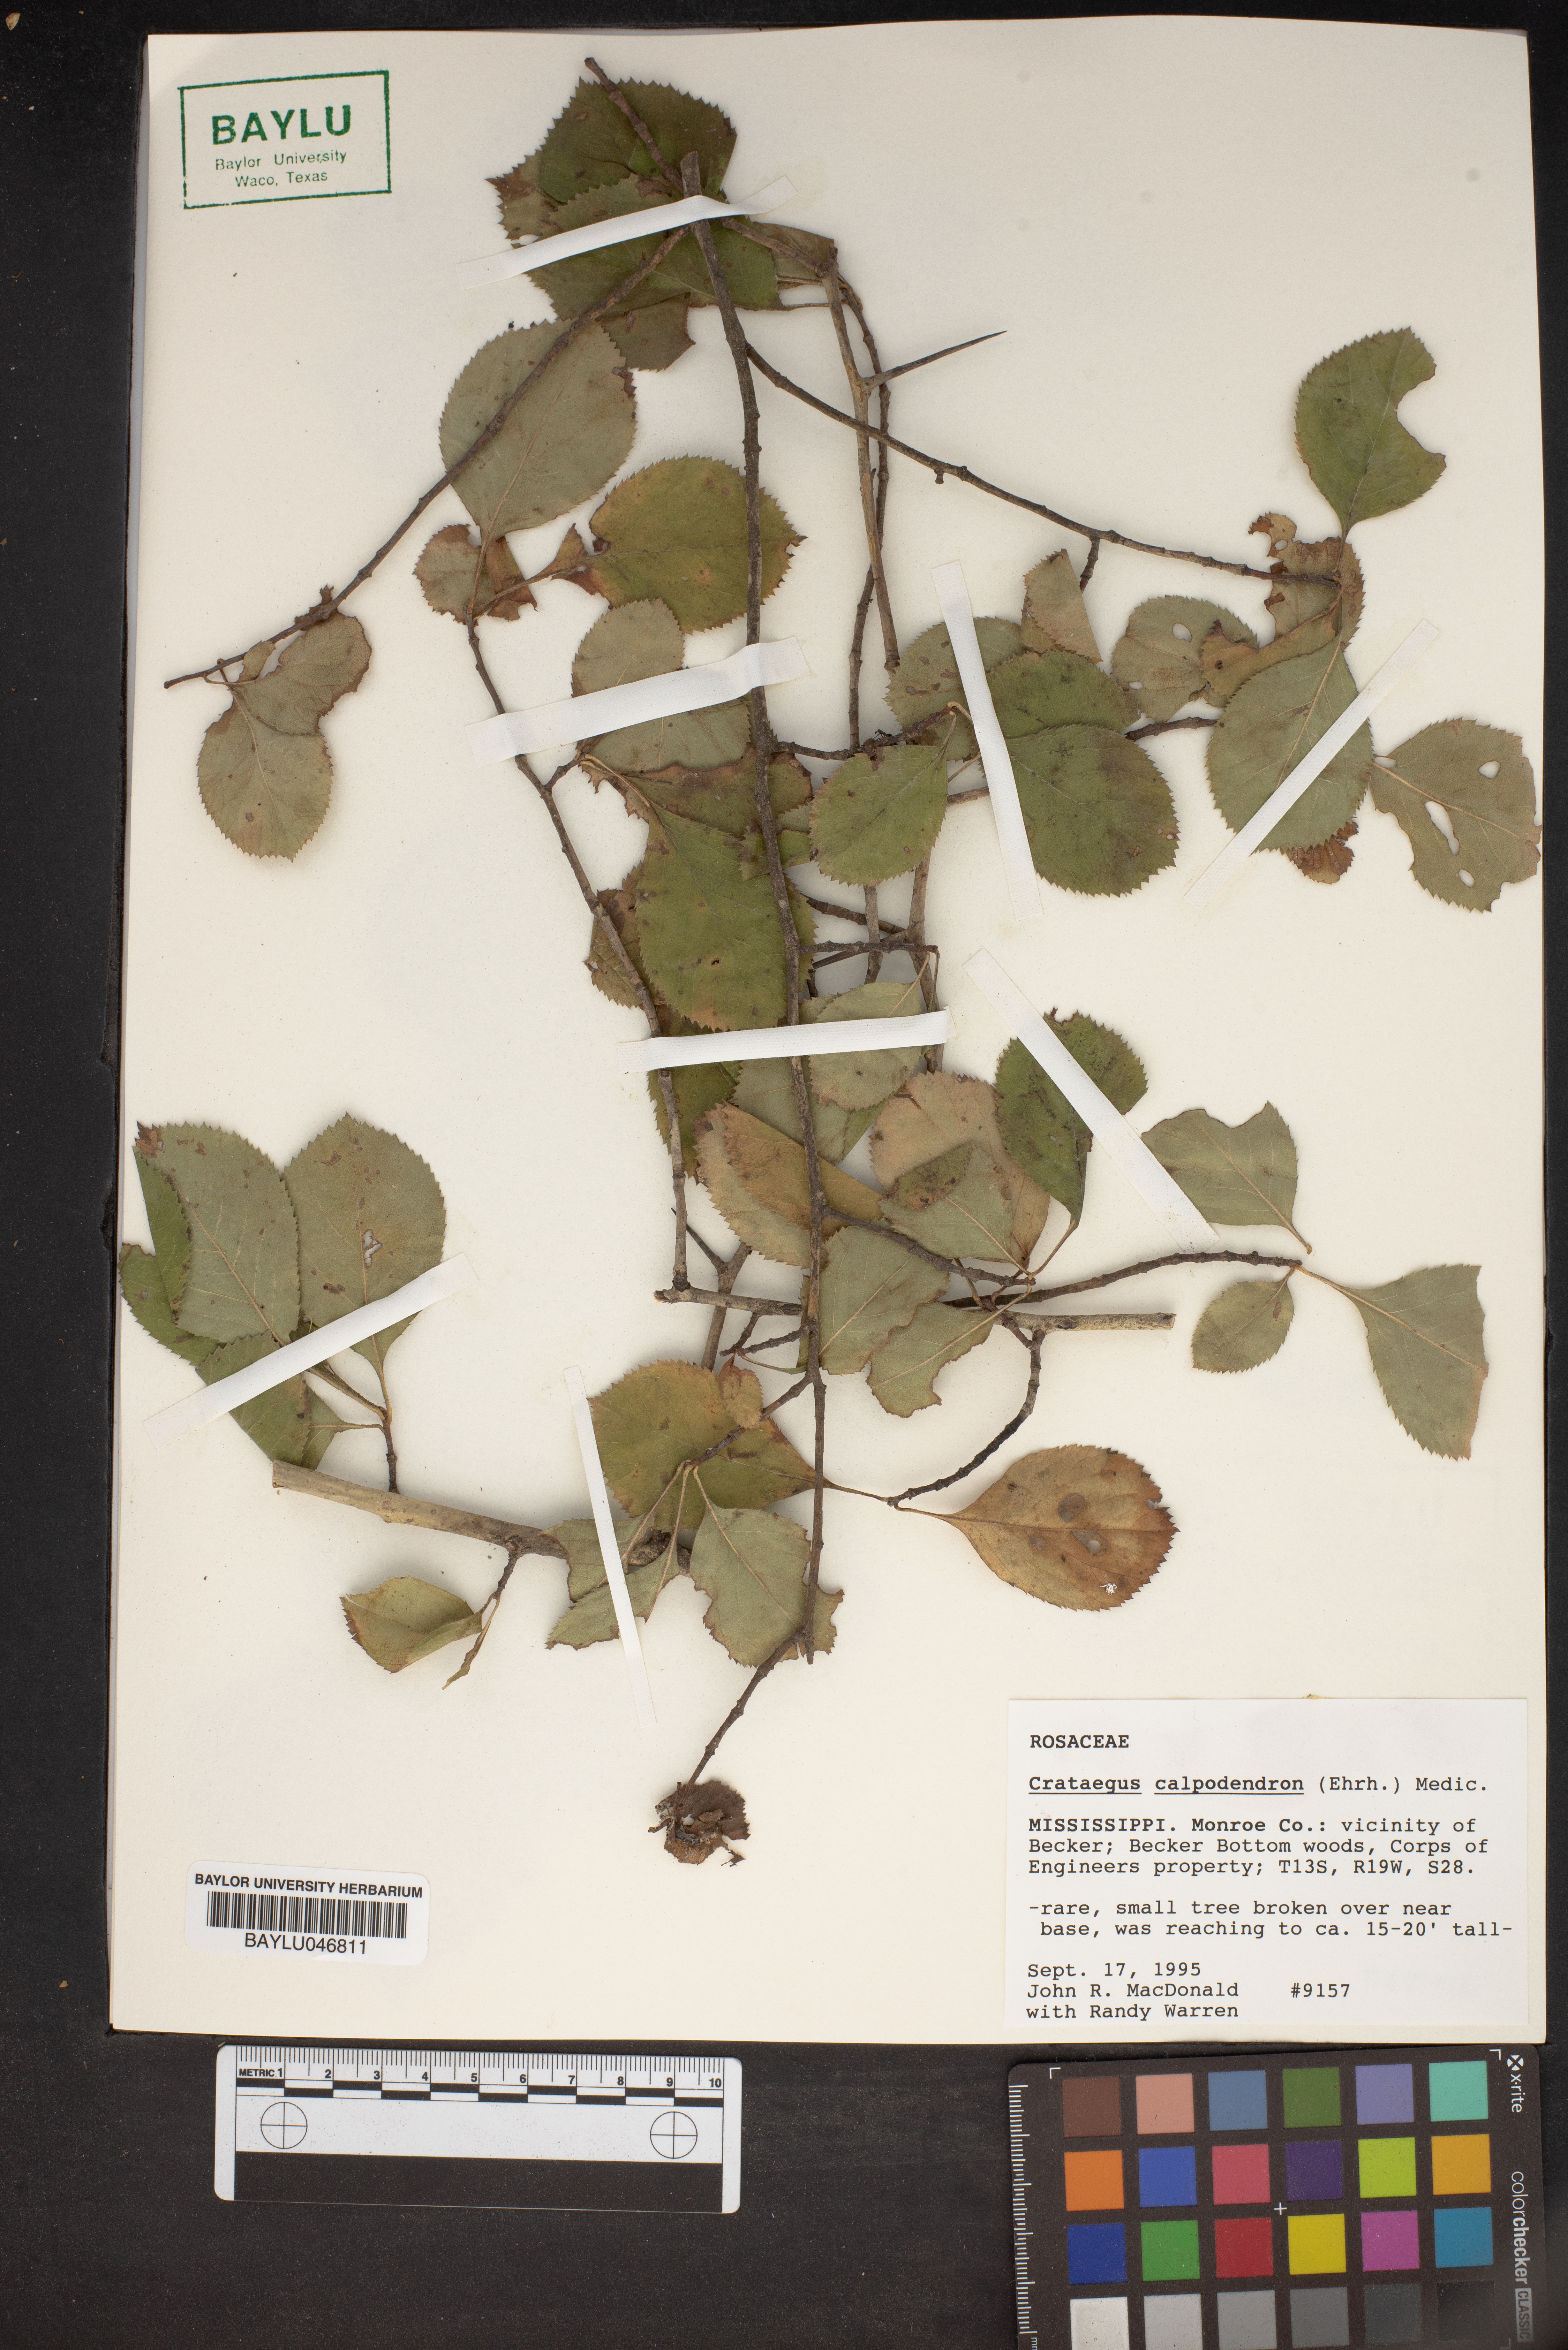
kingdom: Plantae
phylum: Tracheophyta
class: Magnoliopsida
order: Rosales
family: Rosaceae
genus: Crataegus
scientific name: Crataegus calpodendron
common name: Pear hawthorn
